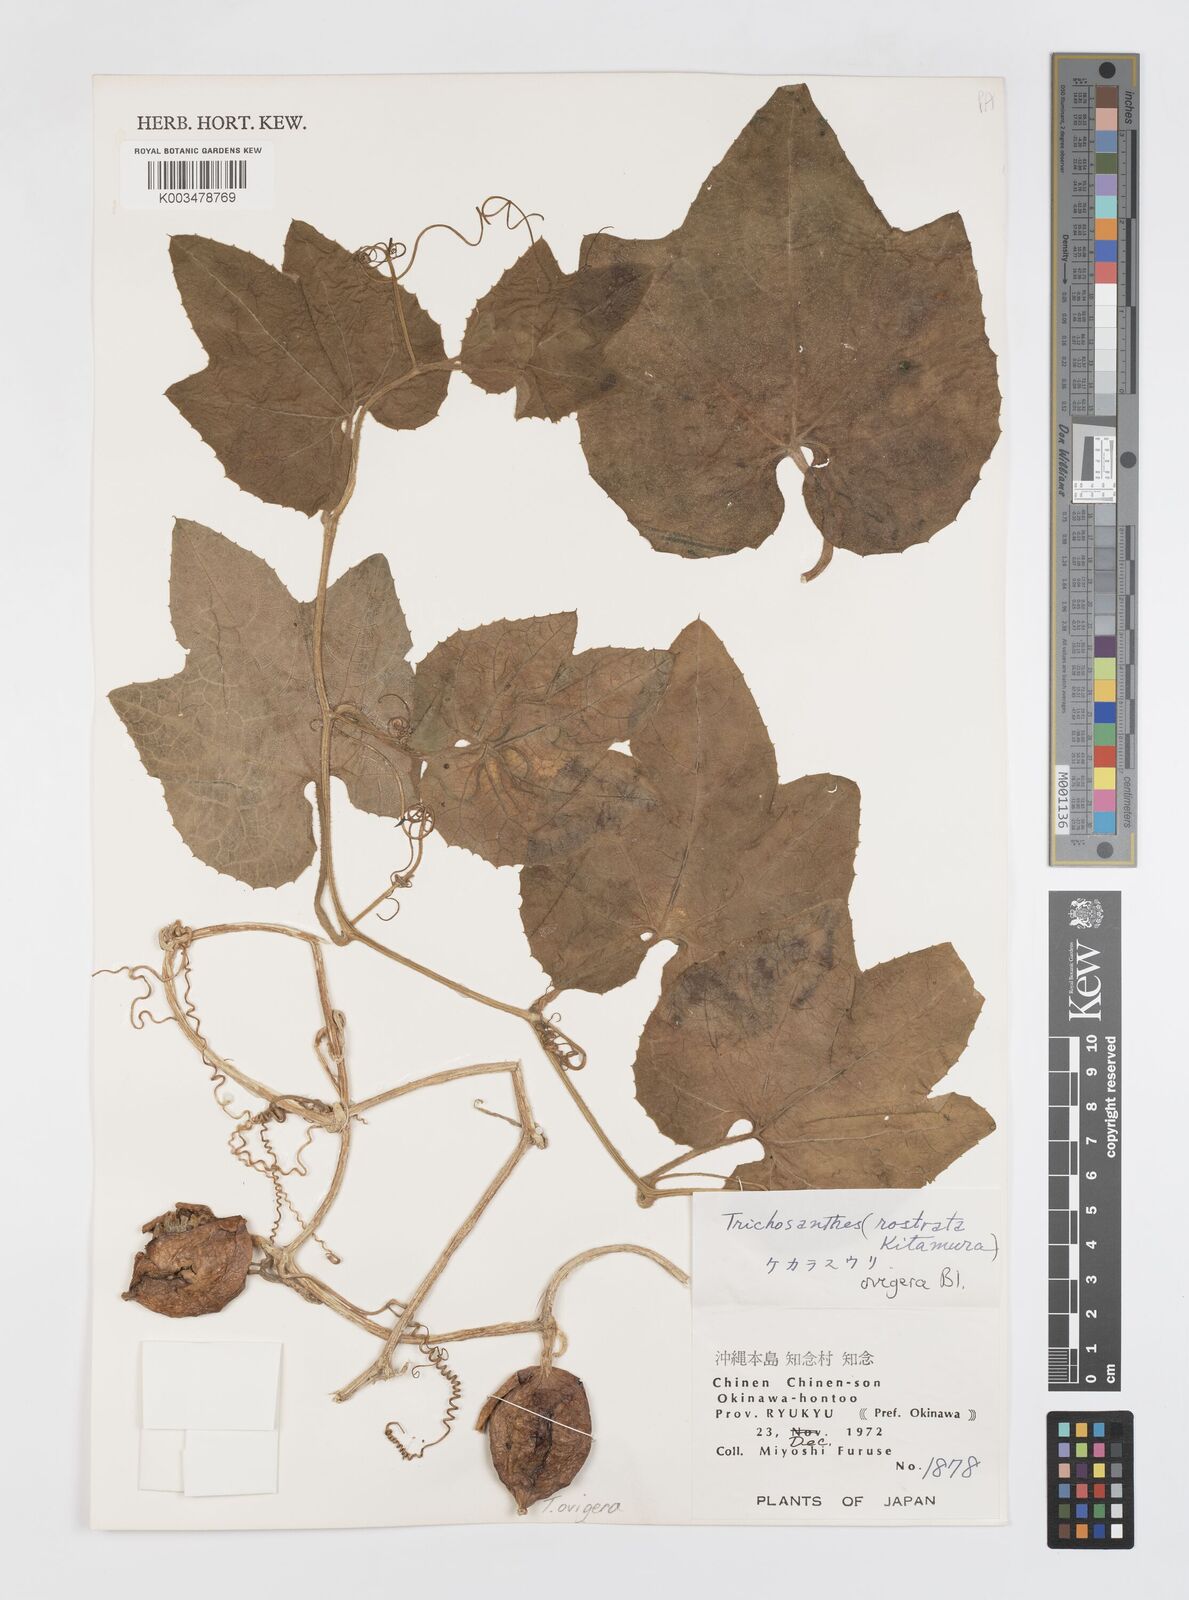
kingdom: Plantae
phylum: Tracheophyta
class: Magnoliopsida
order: Cucurbitales
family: Cucurbitaceae
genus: Trichosanthes
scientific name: Trichosanthes ovigera
